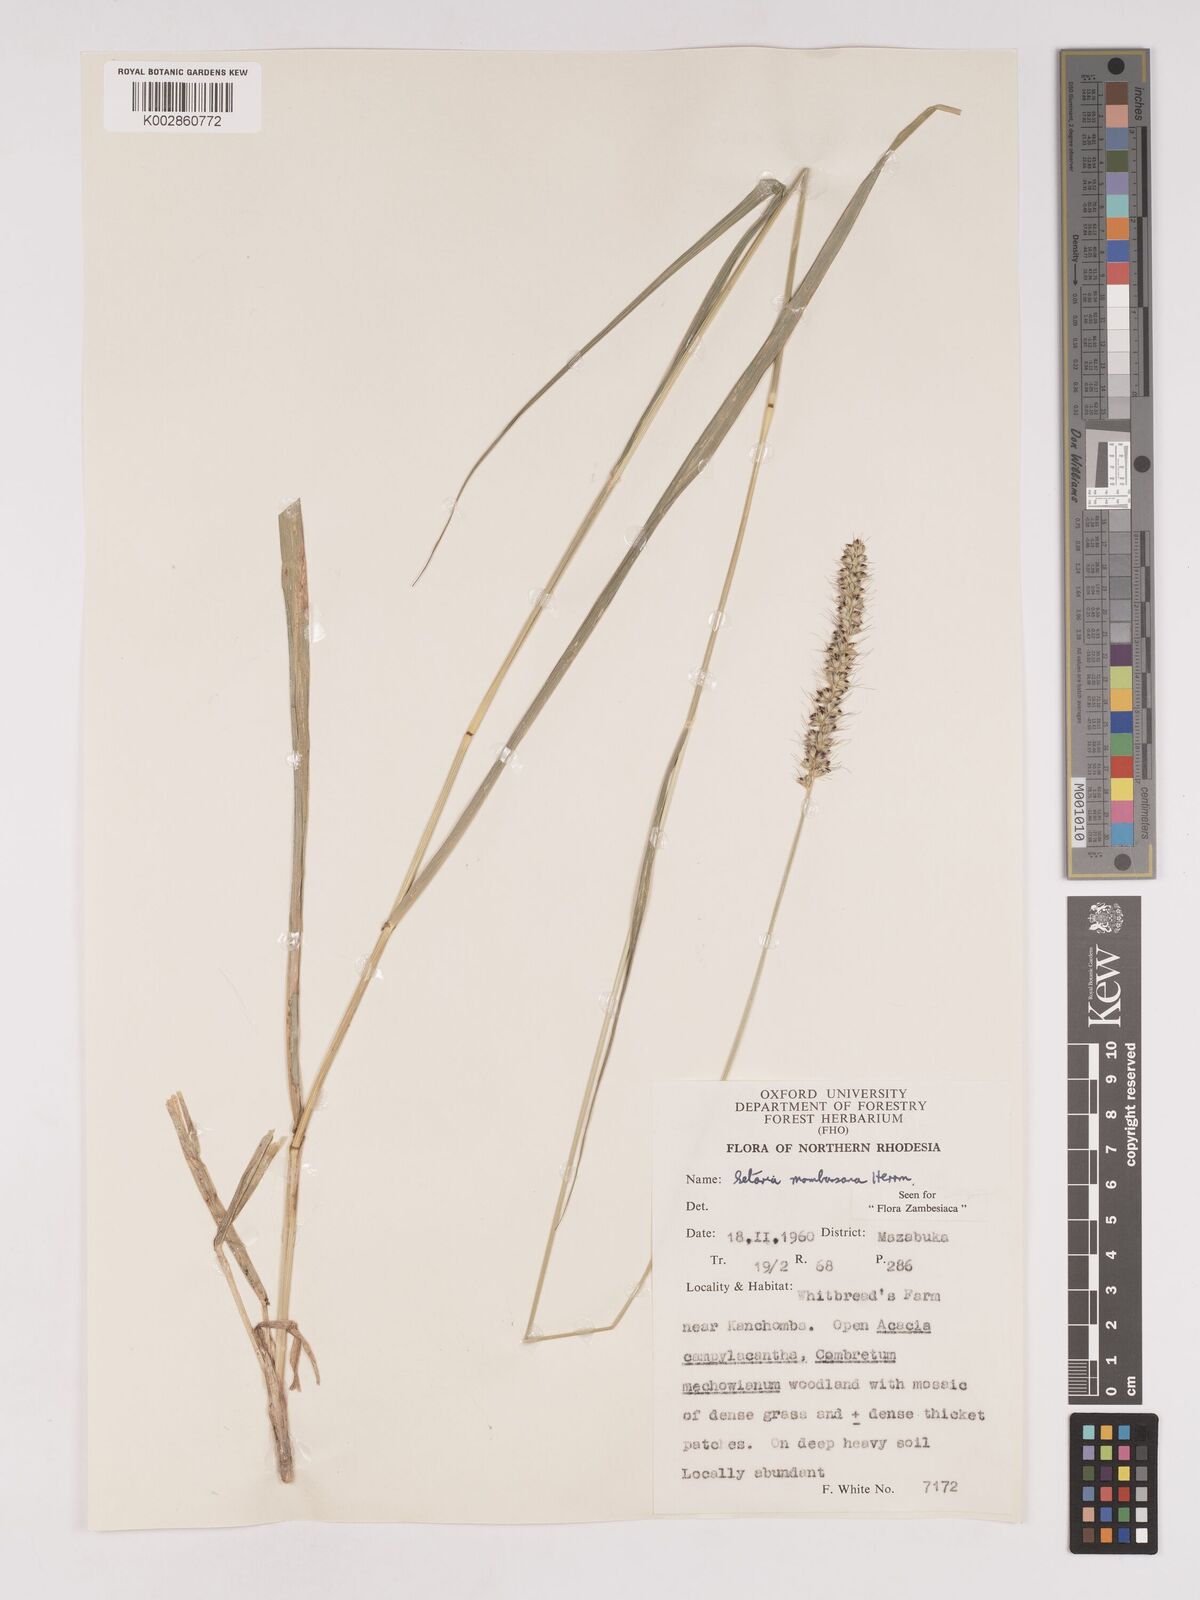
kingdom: Plantae
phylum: Tracheophyta
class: Liliopsida
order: Poales
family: Poaceae
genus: Setaria
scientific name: Setaria incrassata
